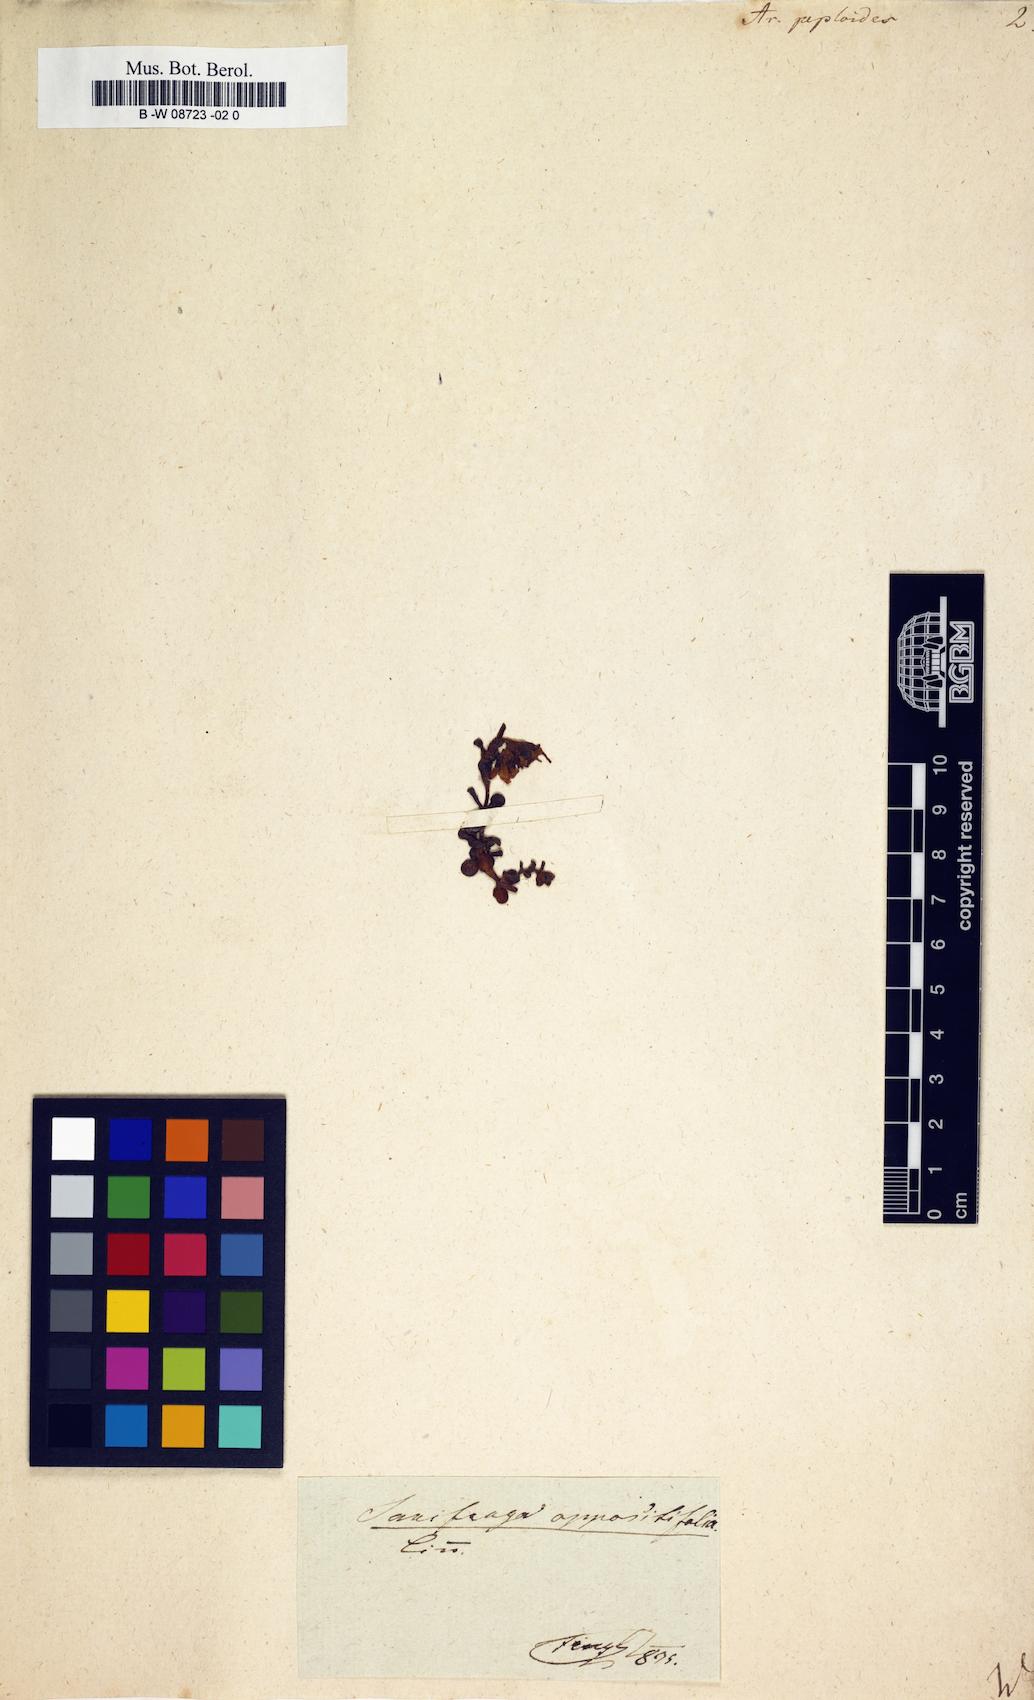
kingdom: Plantae
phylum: Tracheophyta
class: Magnoliopsida
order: Caryophyllales
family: Caryophyllaceae
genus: Honckenya
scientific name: Honckenya peploides
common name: Sea sandwort
